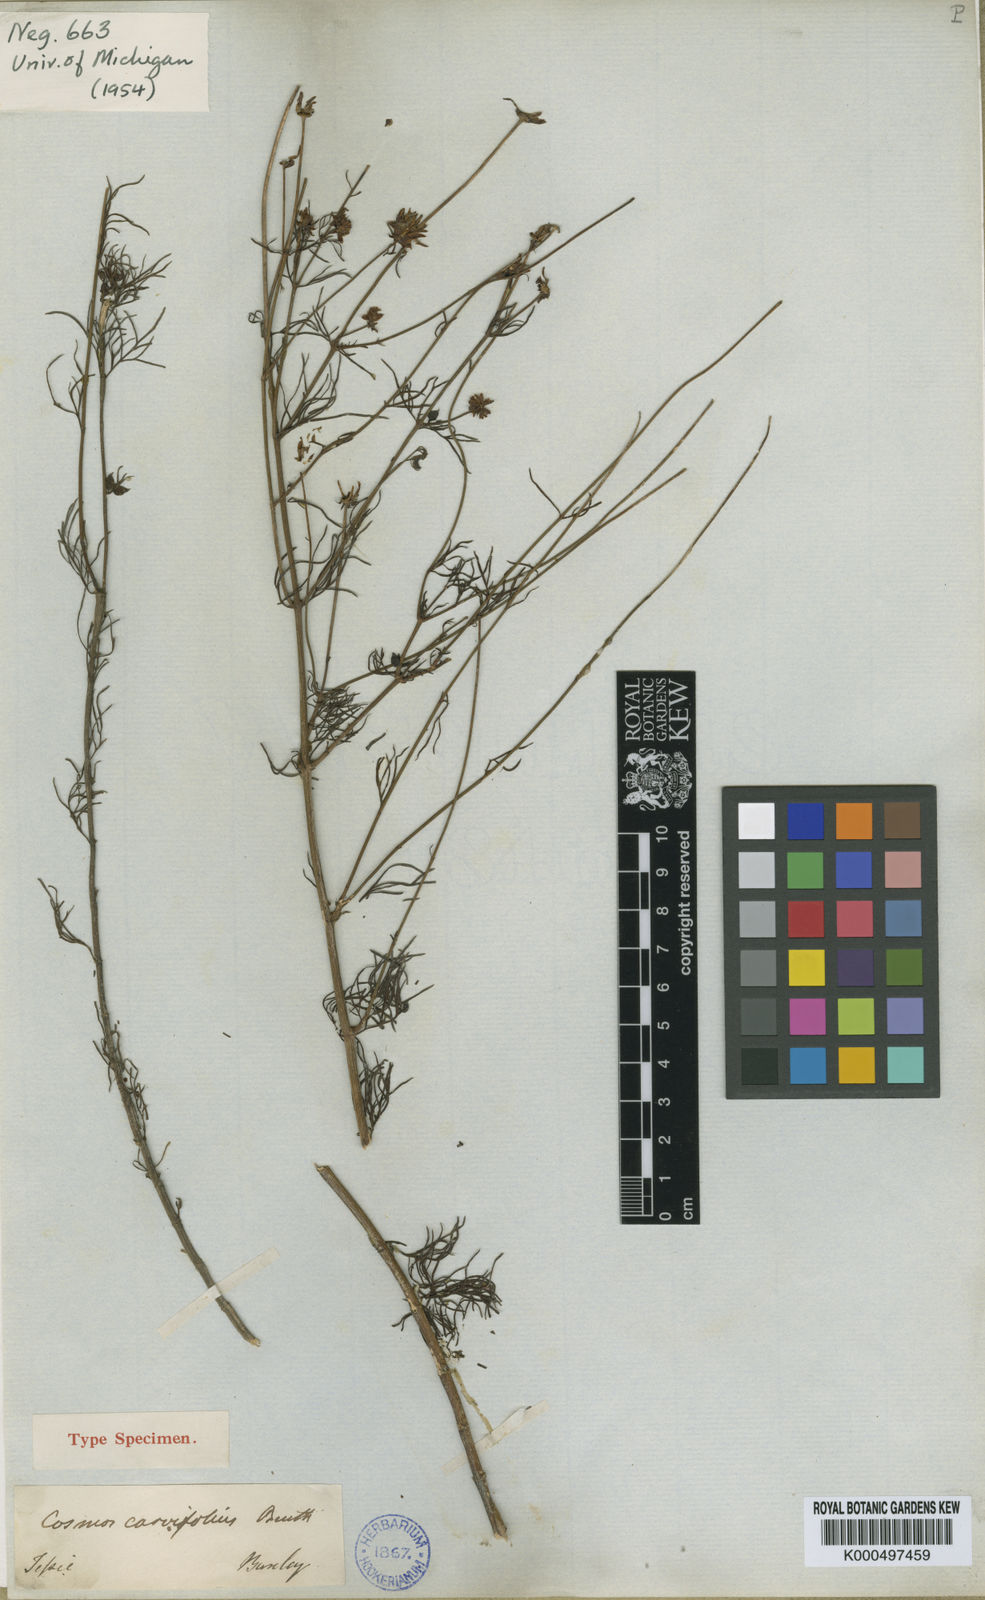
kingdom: Plantae
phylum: Tracheophyta
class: Magnoliopsida
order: Asterales
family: Asteraceae
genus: Cosmos
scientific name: Cosmos carvifolius
